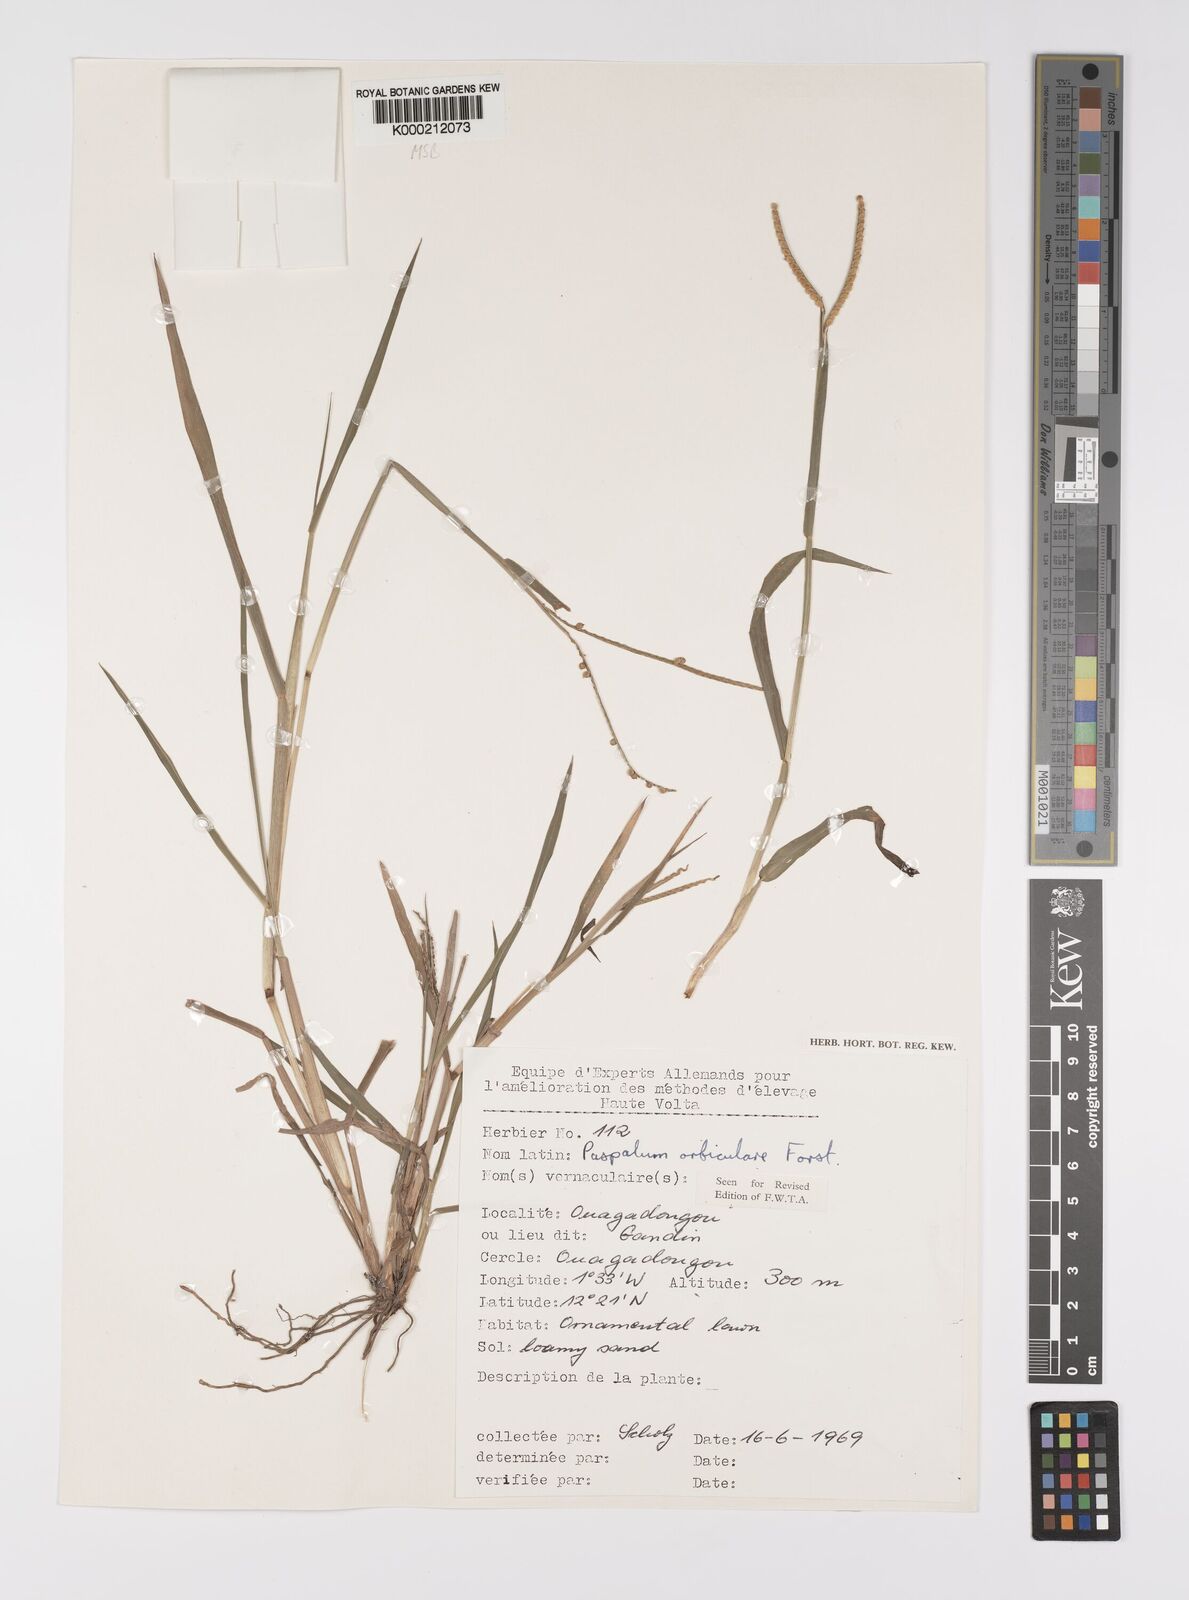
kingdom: Plantae
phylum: Tracheophyta
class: Liliopsida
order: Poales
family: Poaceae
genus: Paspalum
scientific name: Paspalum scrobiculatum
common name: Kodo millet
